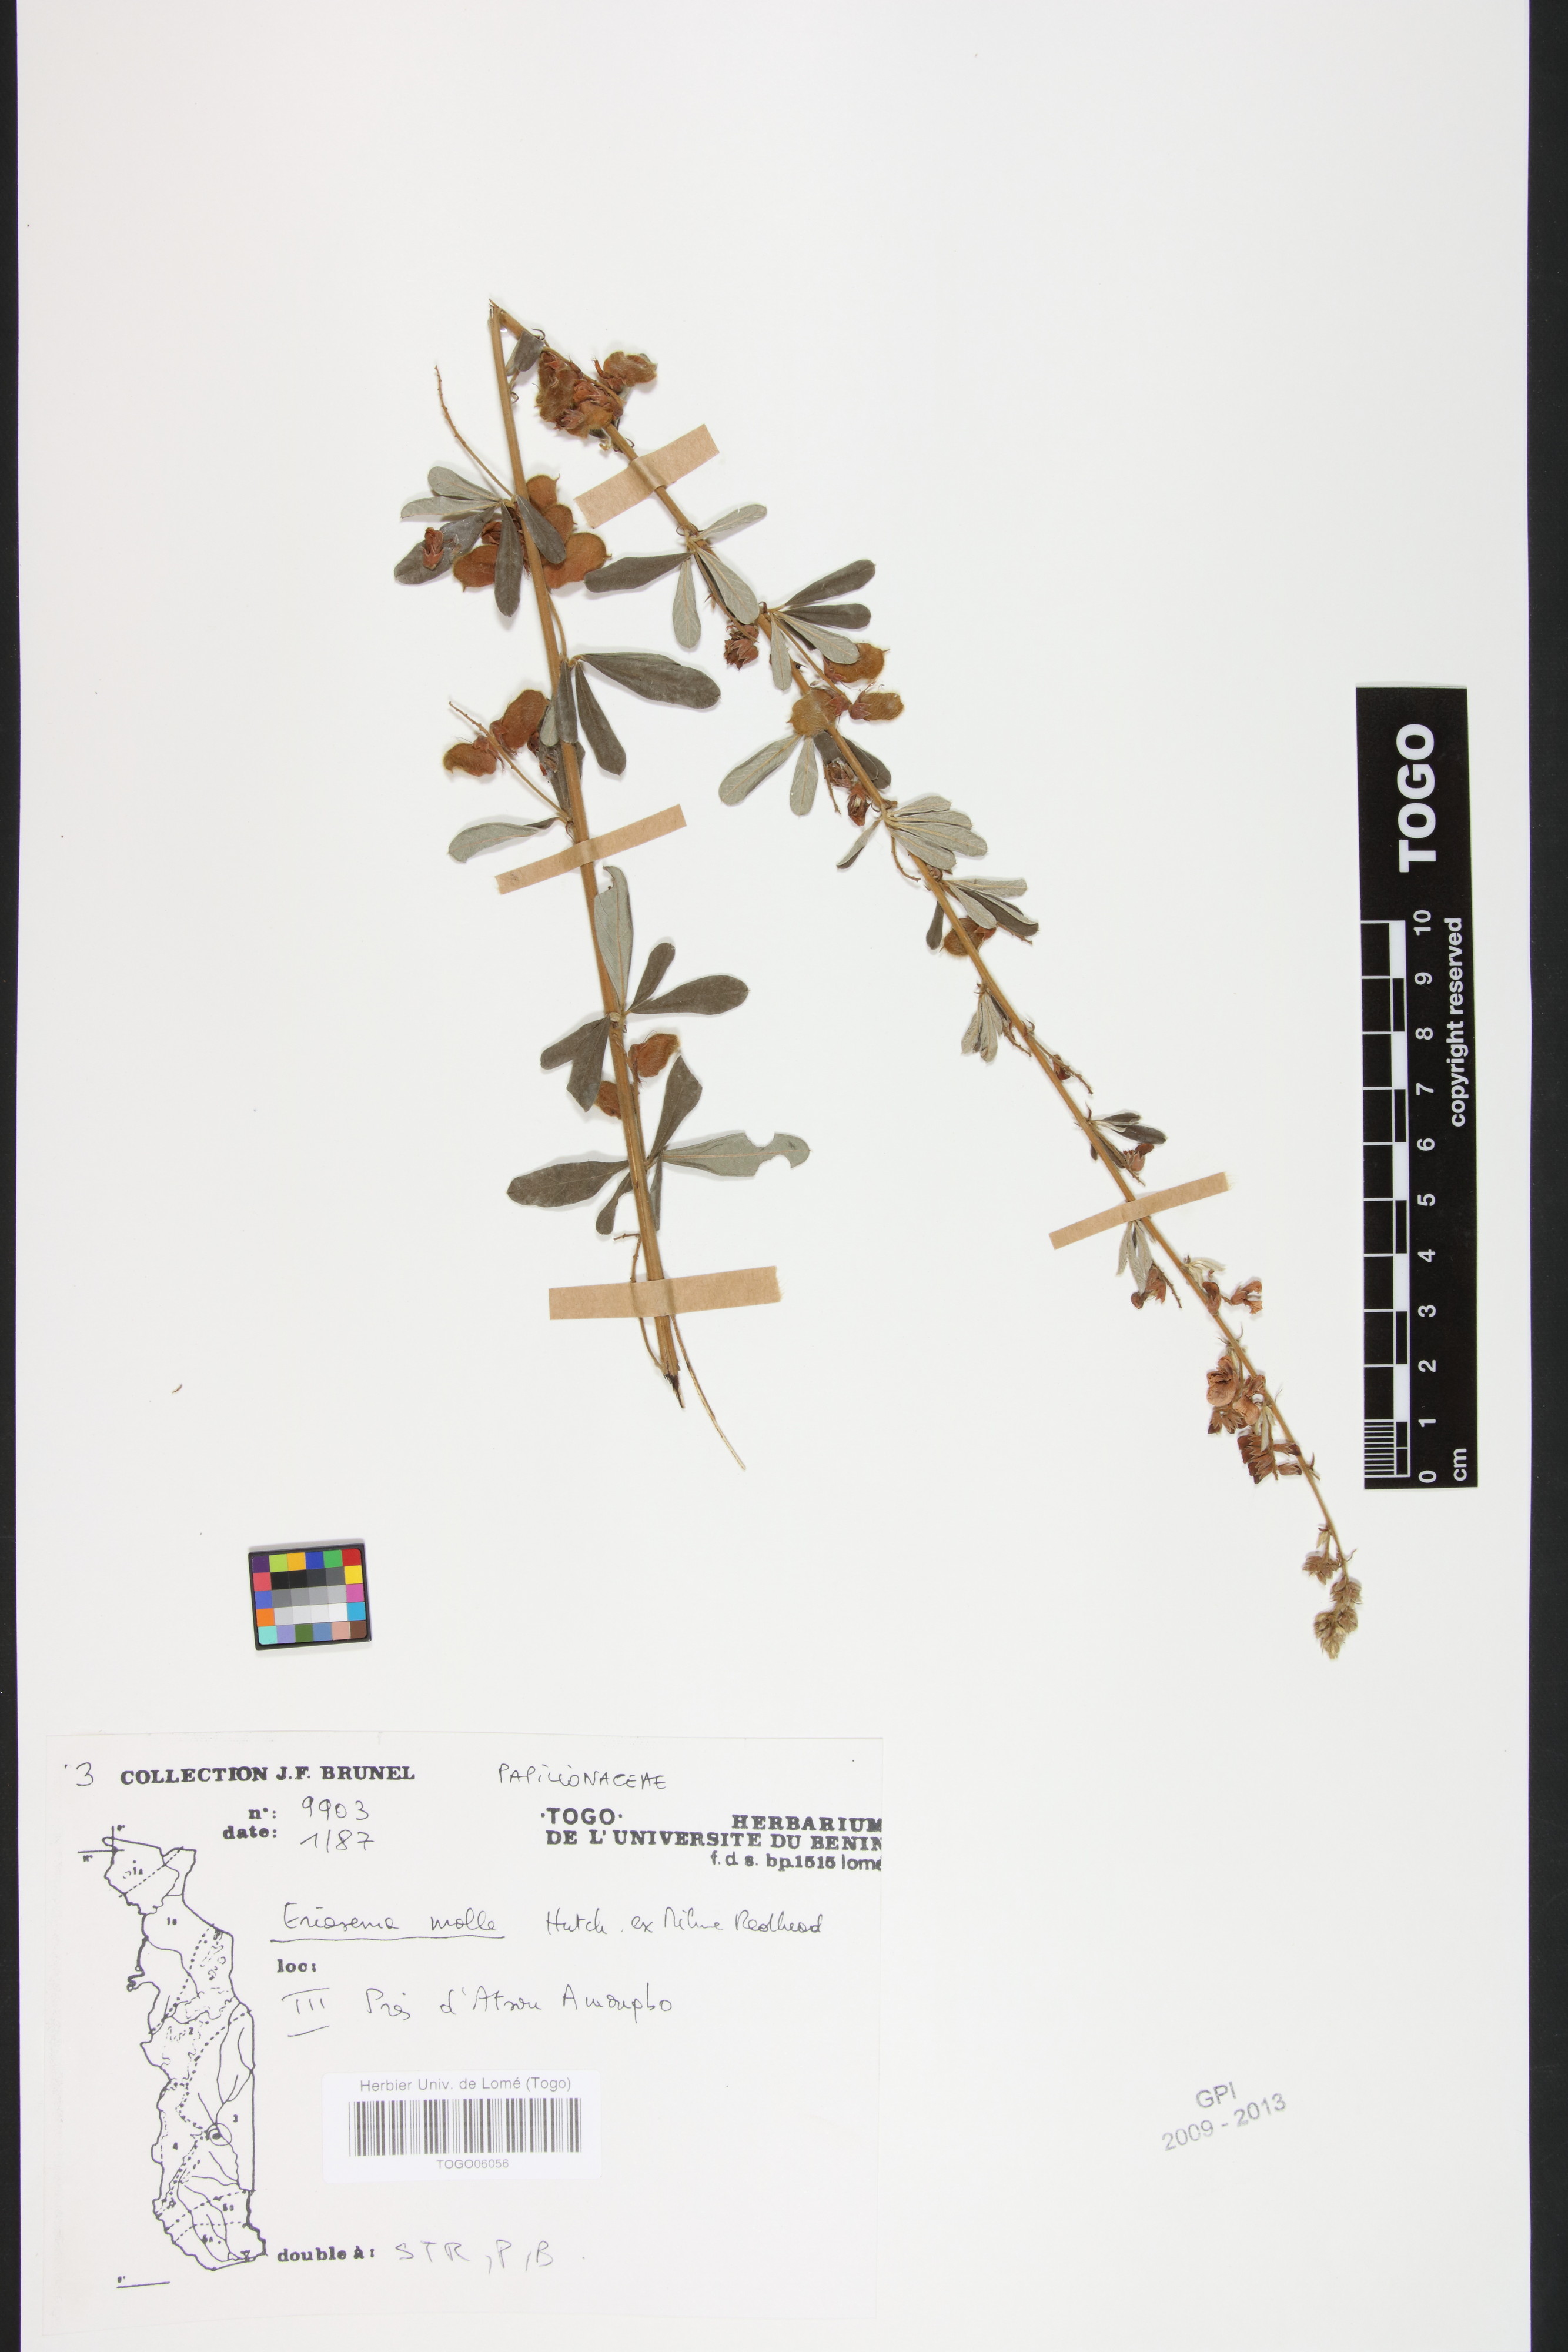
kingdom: Plantae
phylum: Tracheophyta
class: Magnoliopsida
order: Fabales
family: Fabaceae
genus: Eriosema
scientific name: Eriosema molle
